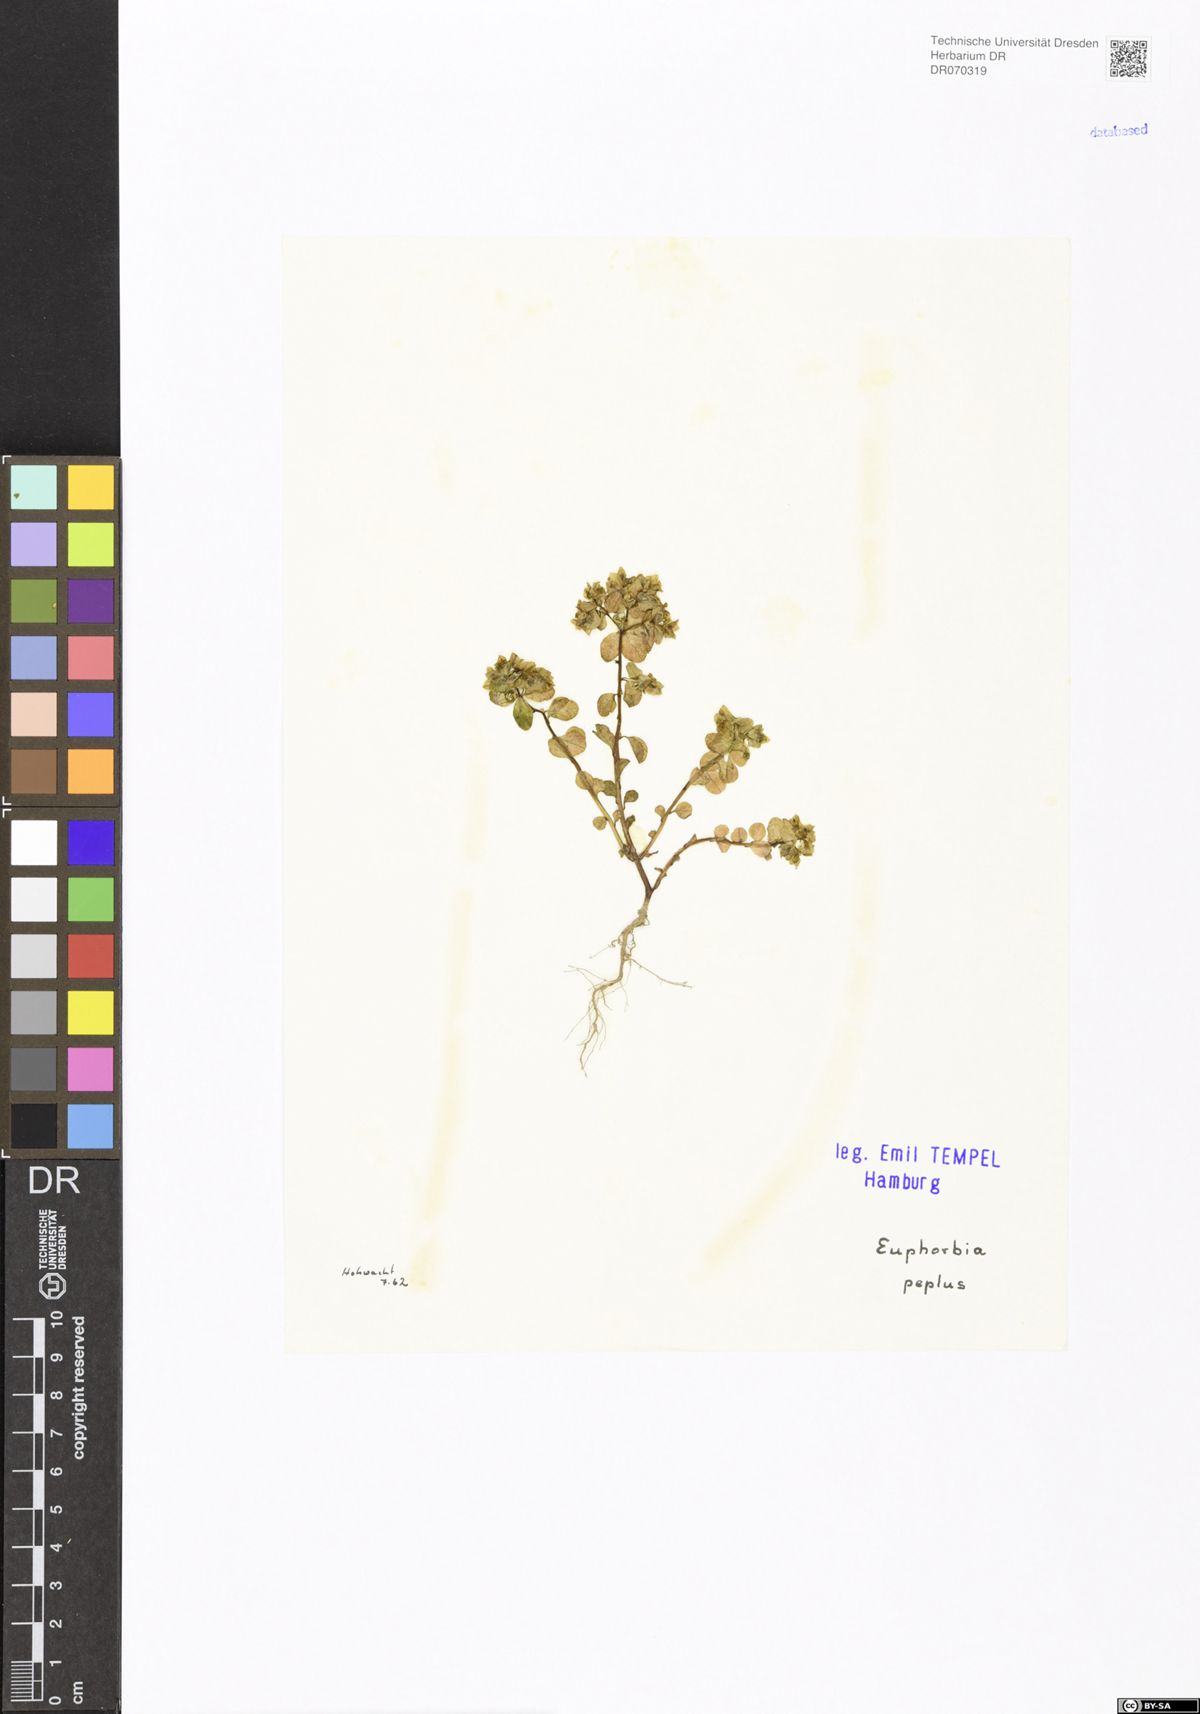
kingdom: Plantae
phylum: Tracheophyta
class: Magnoliopsida
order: Malpighiales
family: Euphorbiaceae
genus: Euphorbia
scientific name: Euphorbia peplus
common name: Petty spurge
